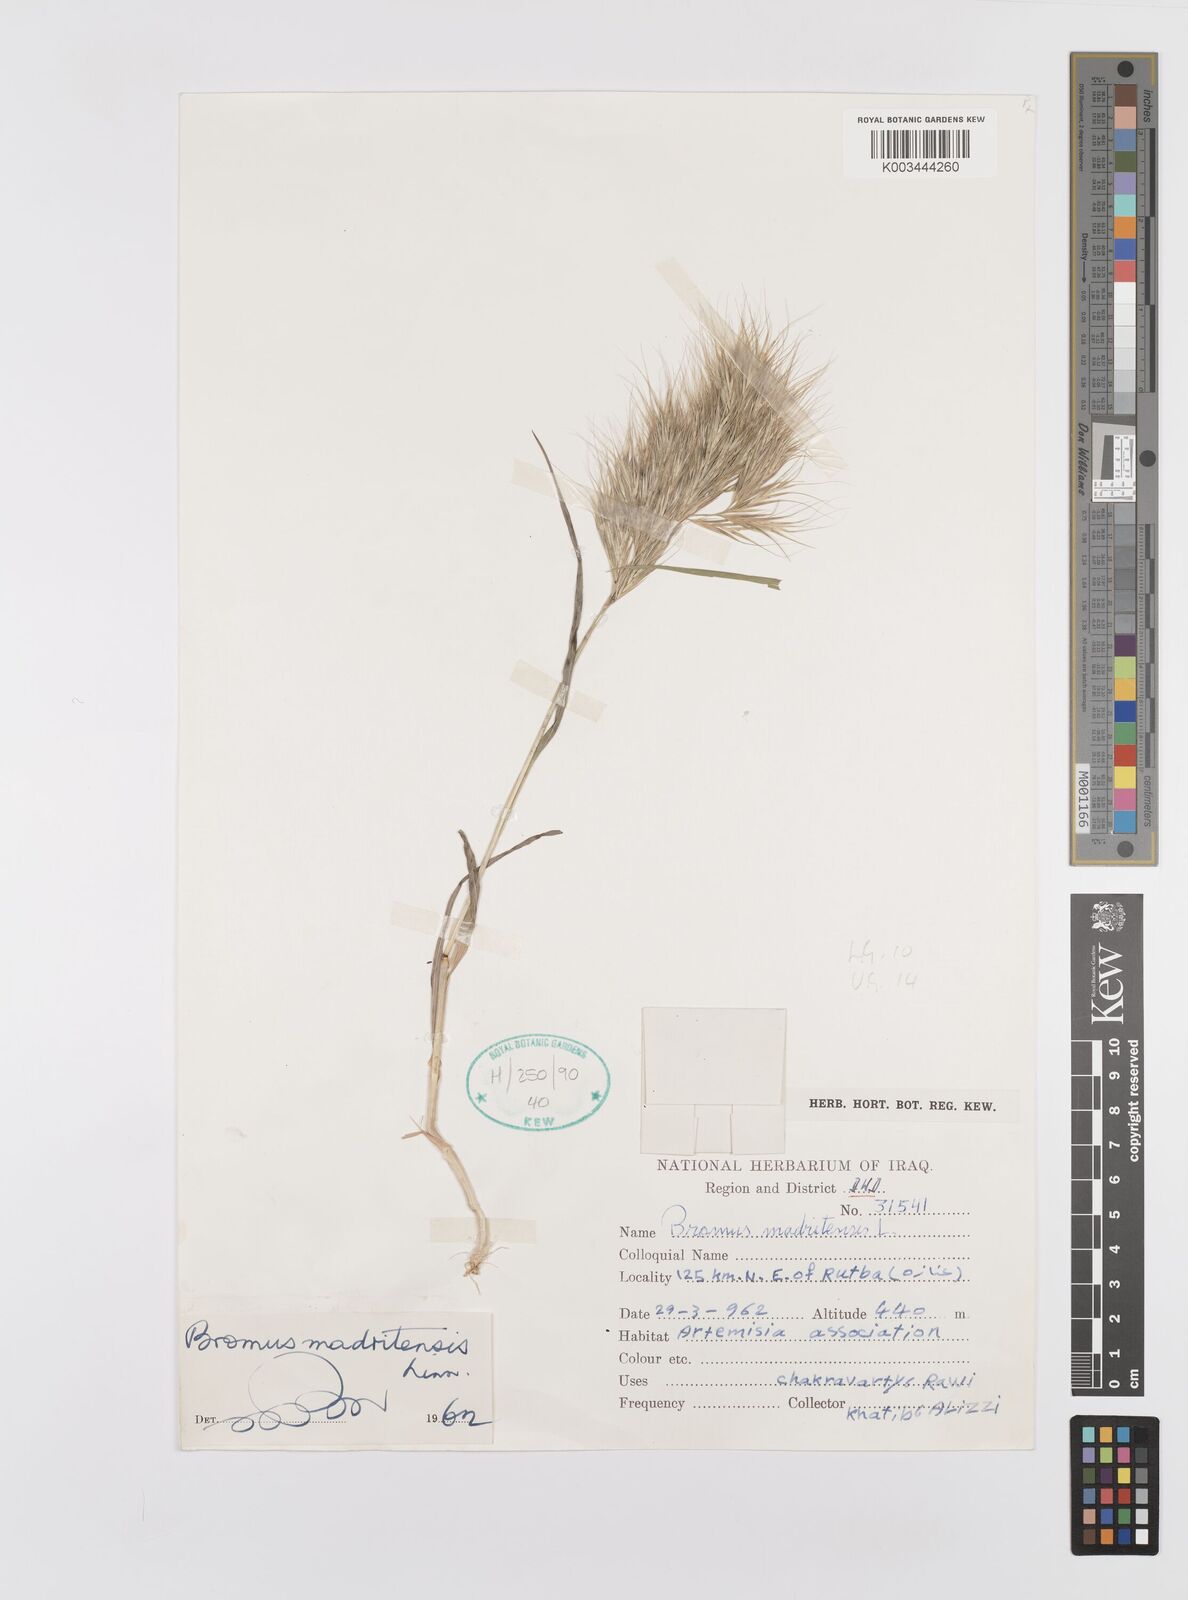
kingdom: Plantae
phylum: Tracheophyta
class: Liliopsida
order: Poales
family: Poaceae
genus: Bromus
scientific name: Bromus madritensis
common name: Compact brome
